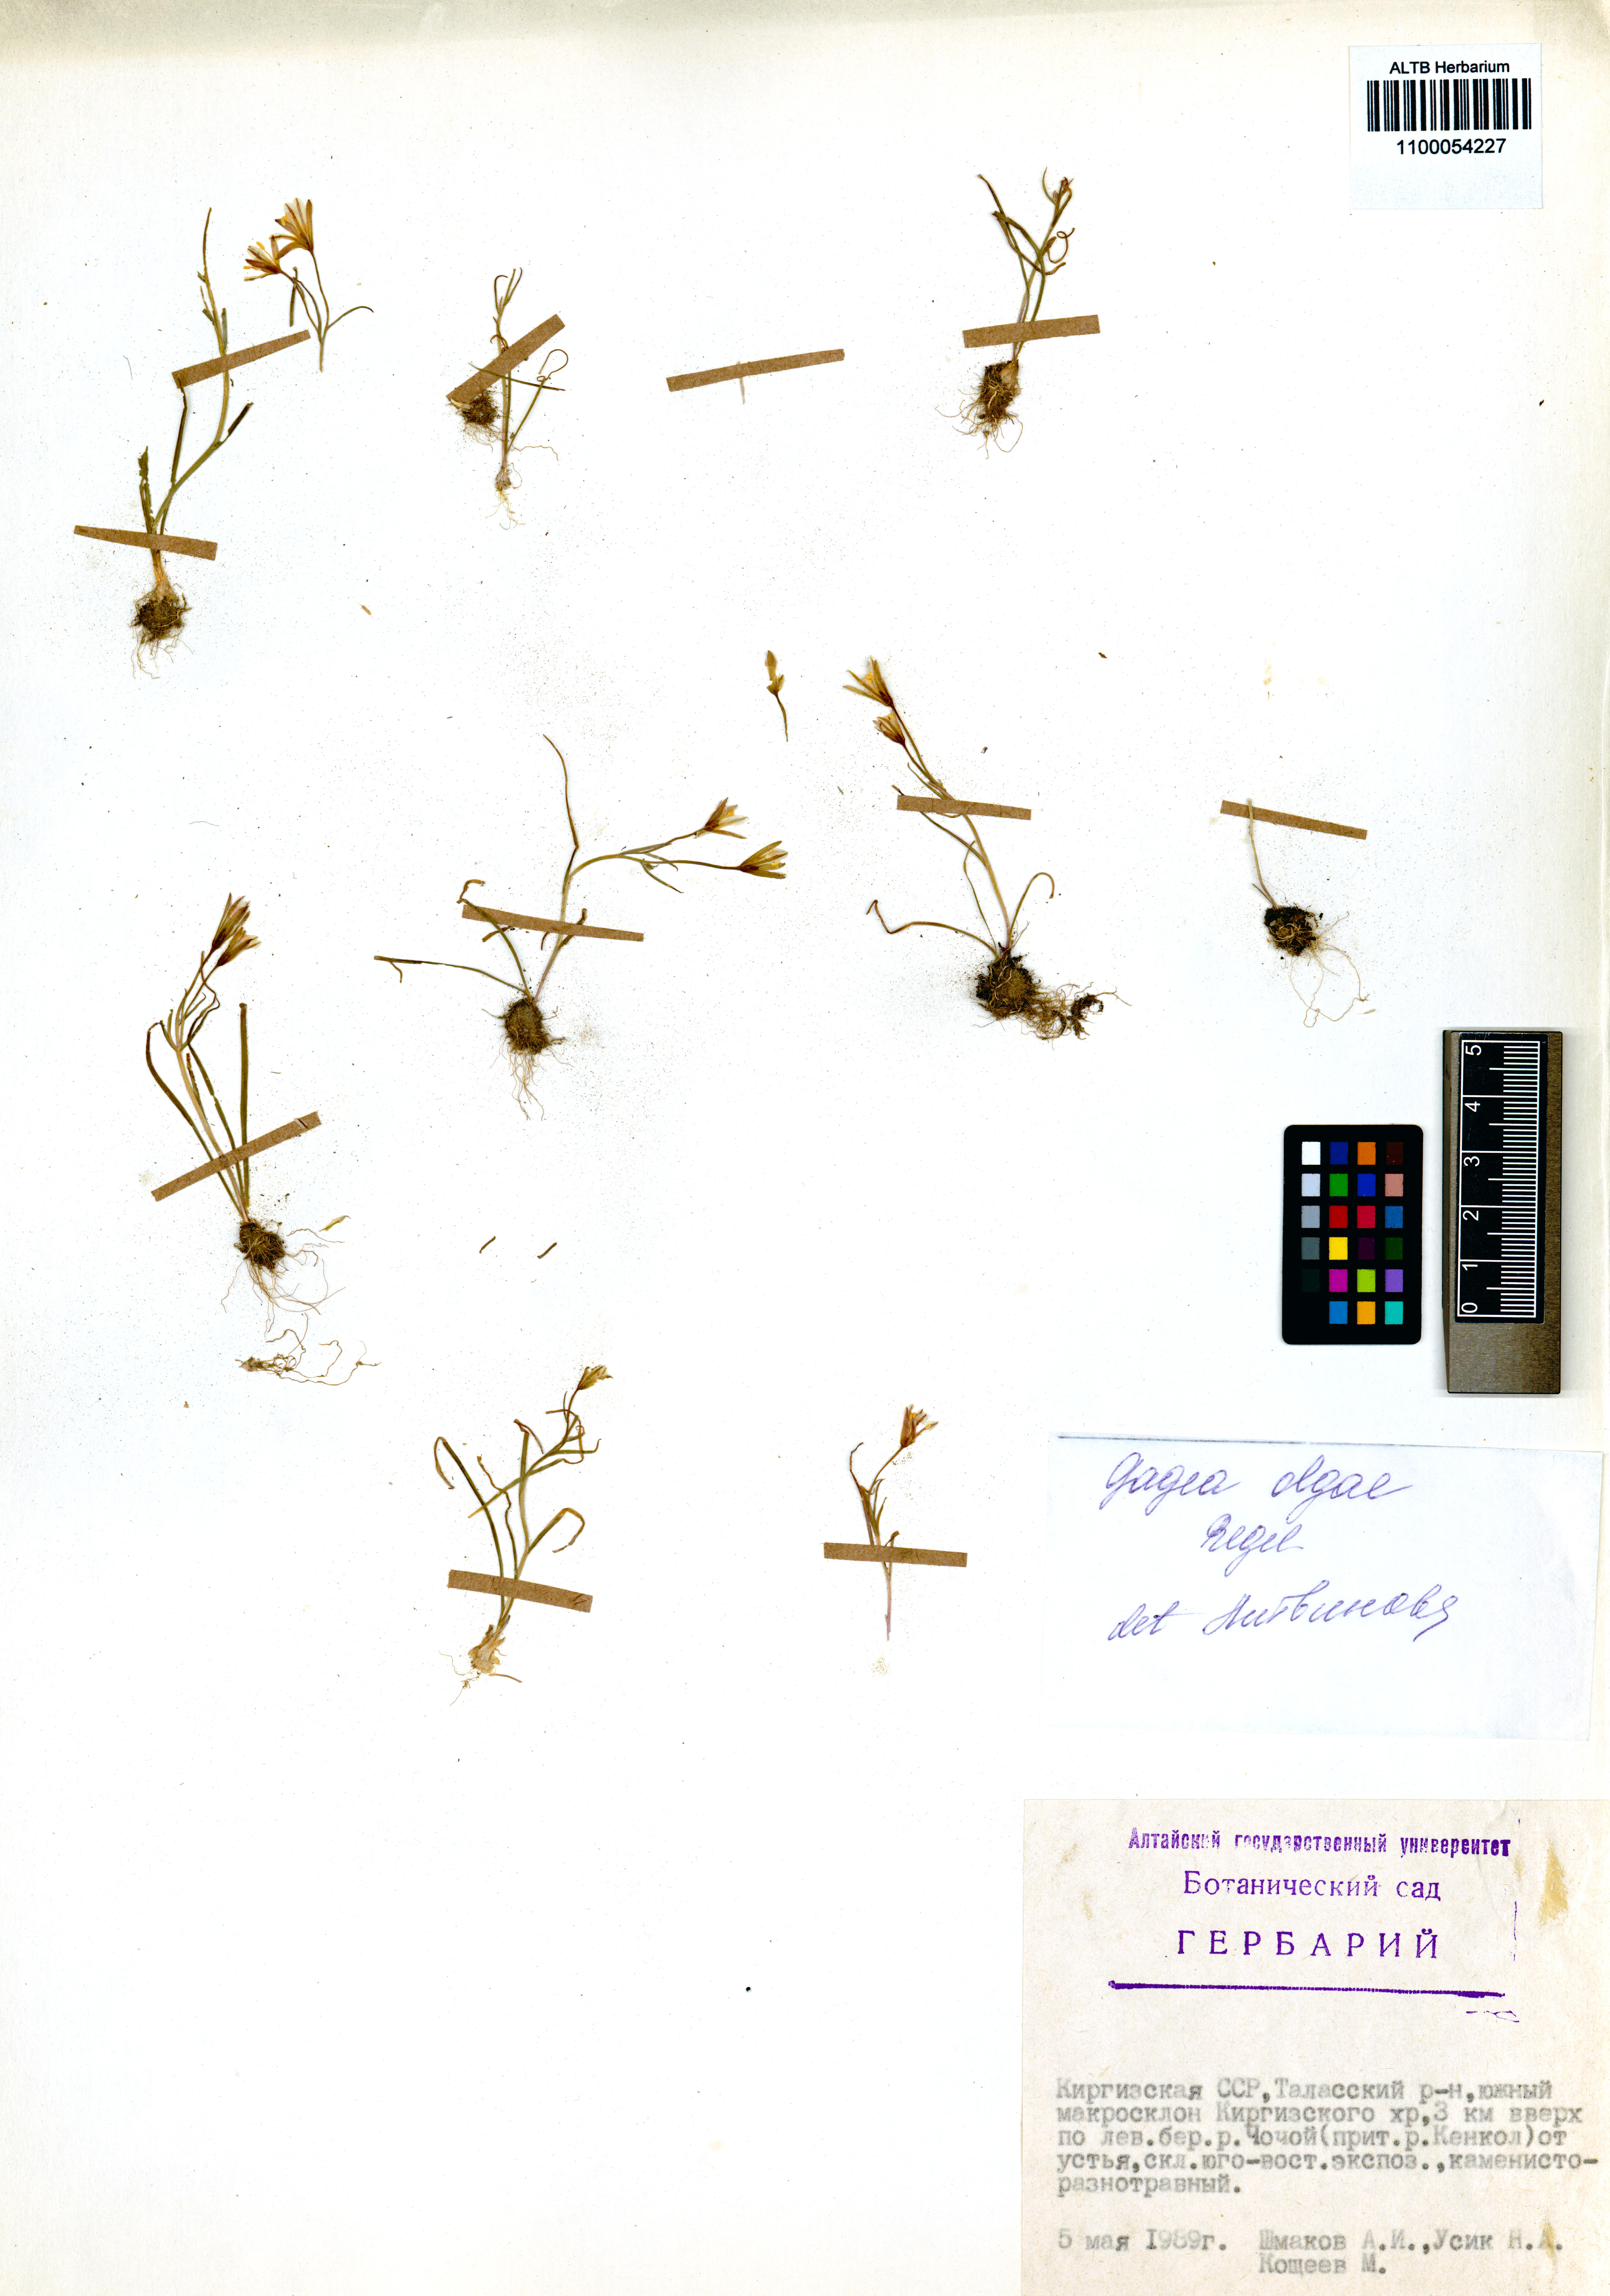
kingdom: Plantae
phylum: Tracheophyta
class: Liliopsida
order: Liliales
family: Liliaceae
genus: Gagea
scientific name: Gagea olgae
